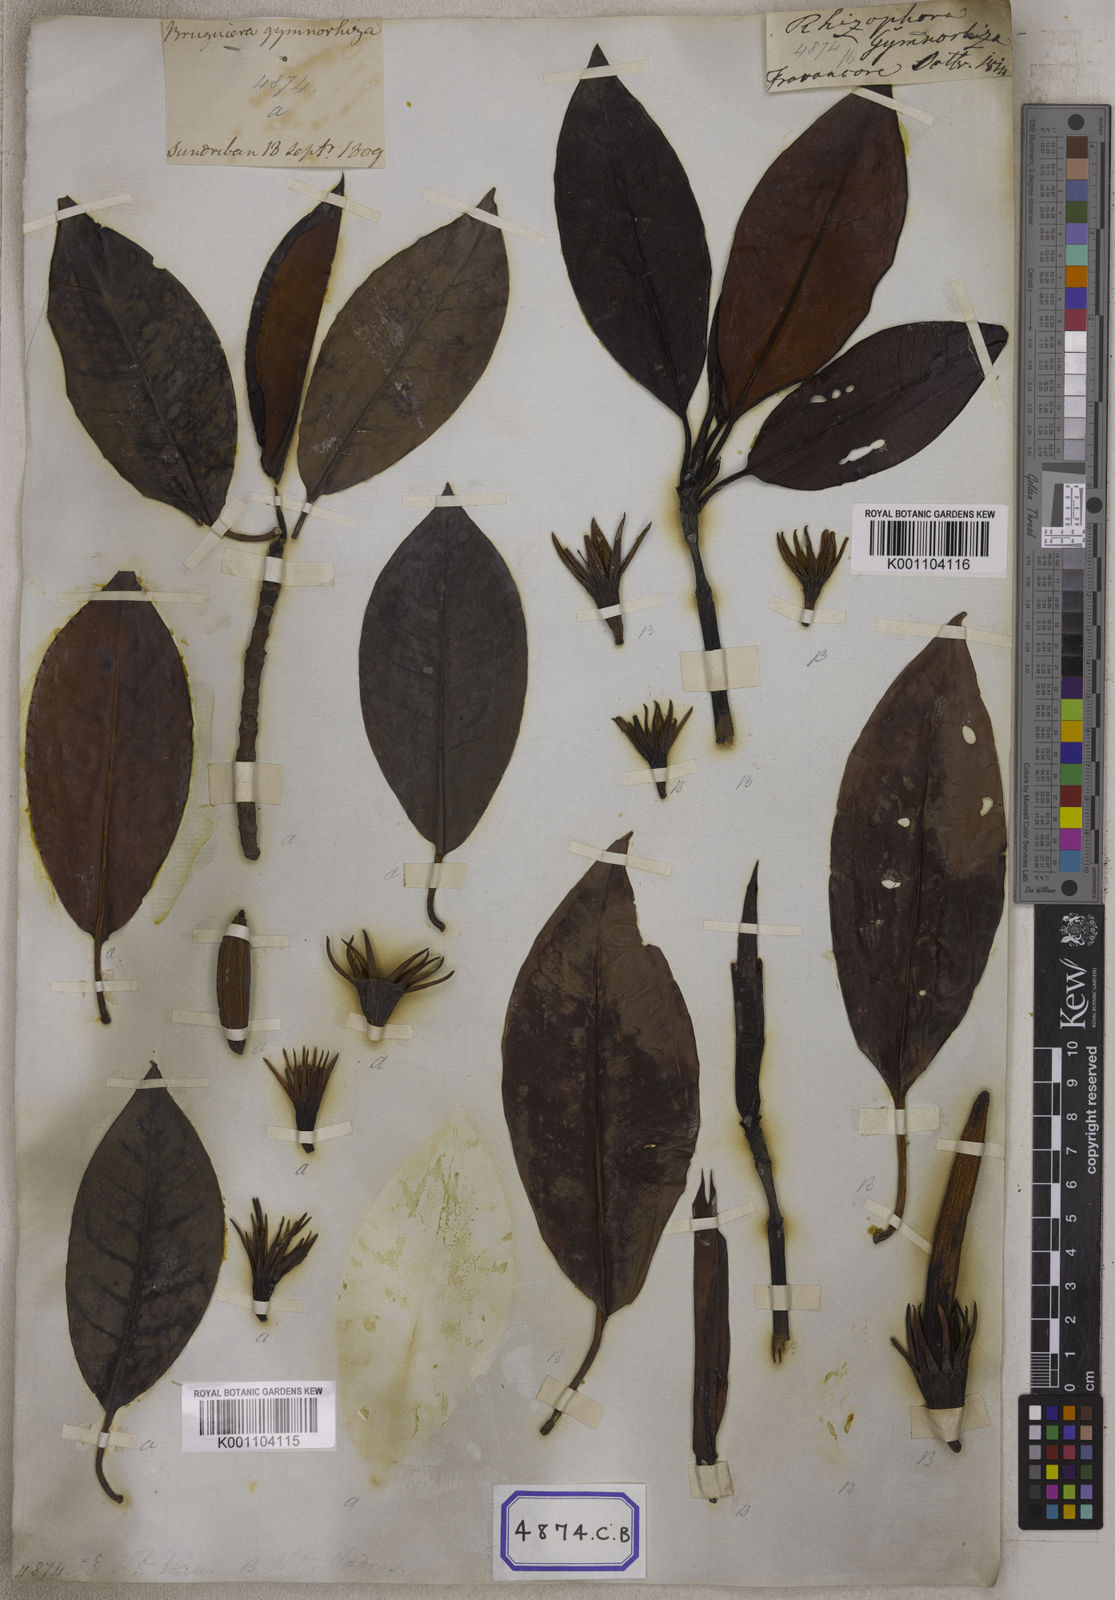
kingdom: Plantae
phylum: Tracheophyta
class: Magnoliopsida
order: Malpighiales
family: Rhizophoraceae
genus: Bruguiera
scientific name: Bruguiera gymnorhiza
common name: Oriental mangrove
